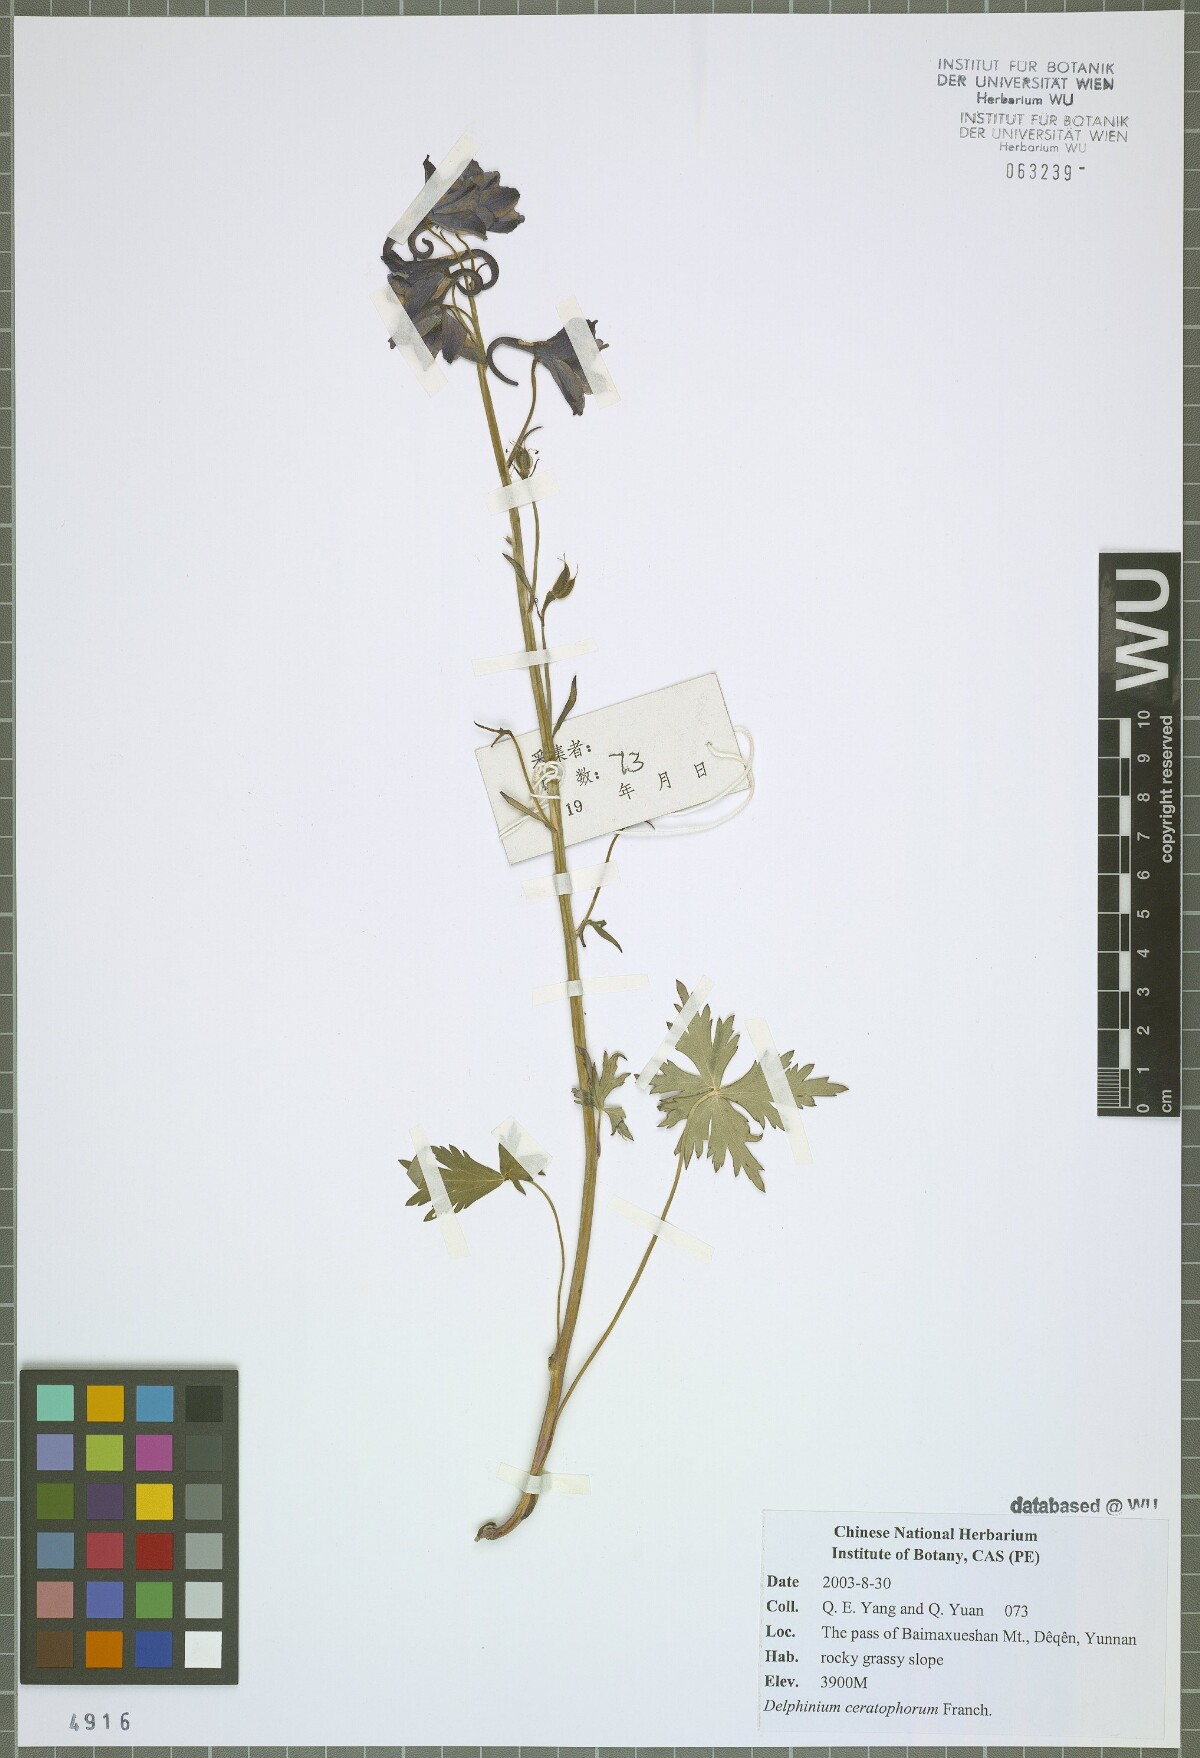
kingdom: Plantae
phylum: Tracheophyta
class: Magnoliopsida
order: Ranunculales
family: Ranunculaceae
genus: Delphinium
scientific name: Delphinium ceratophorum
